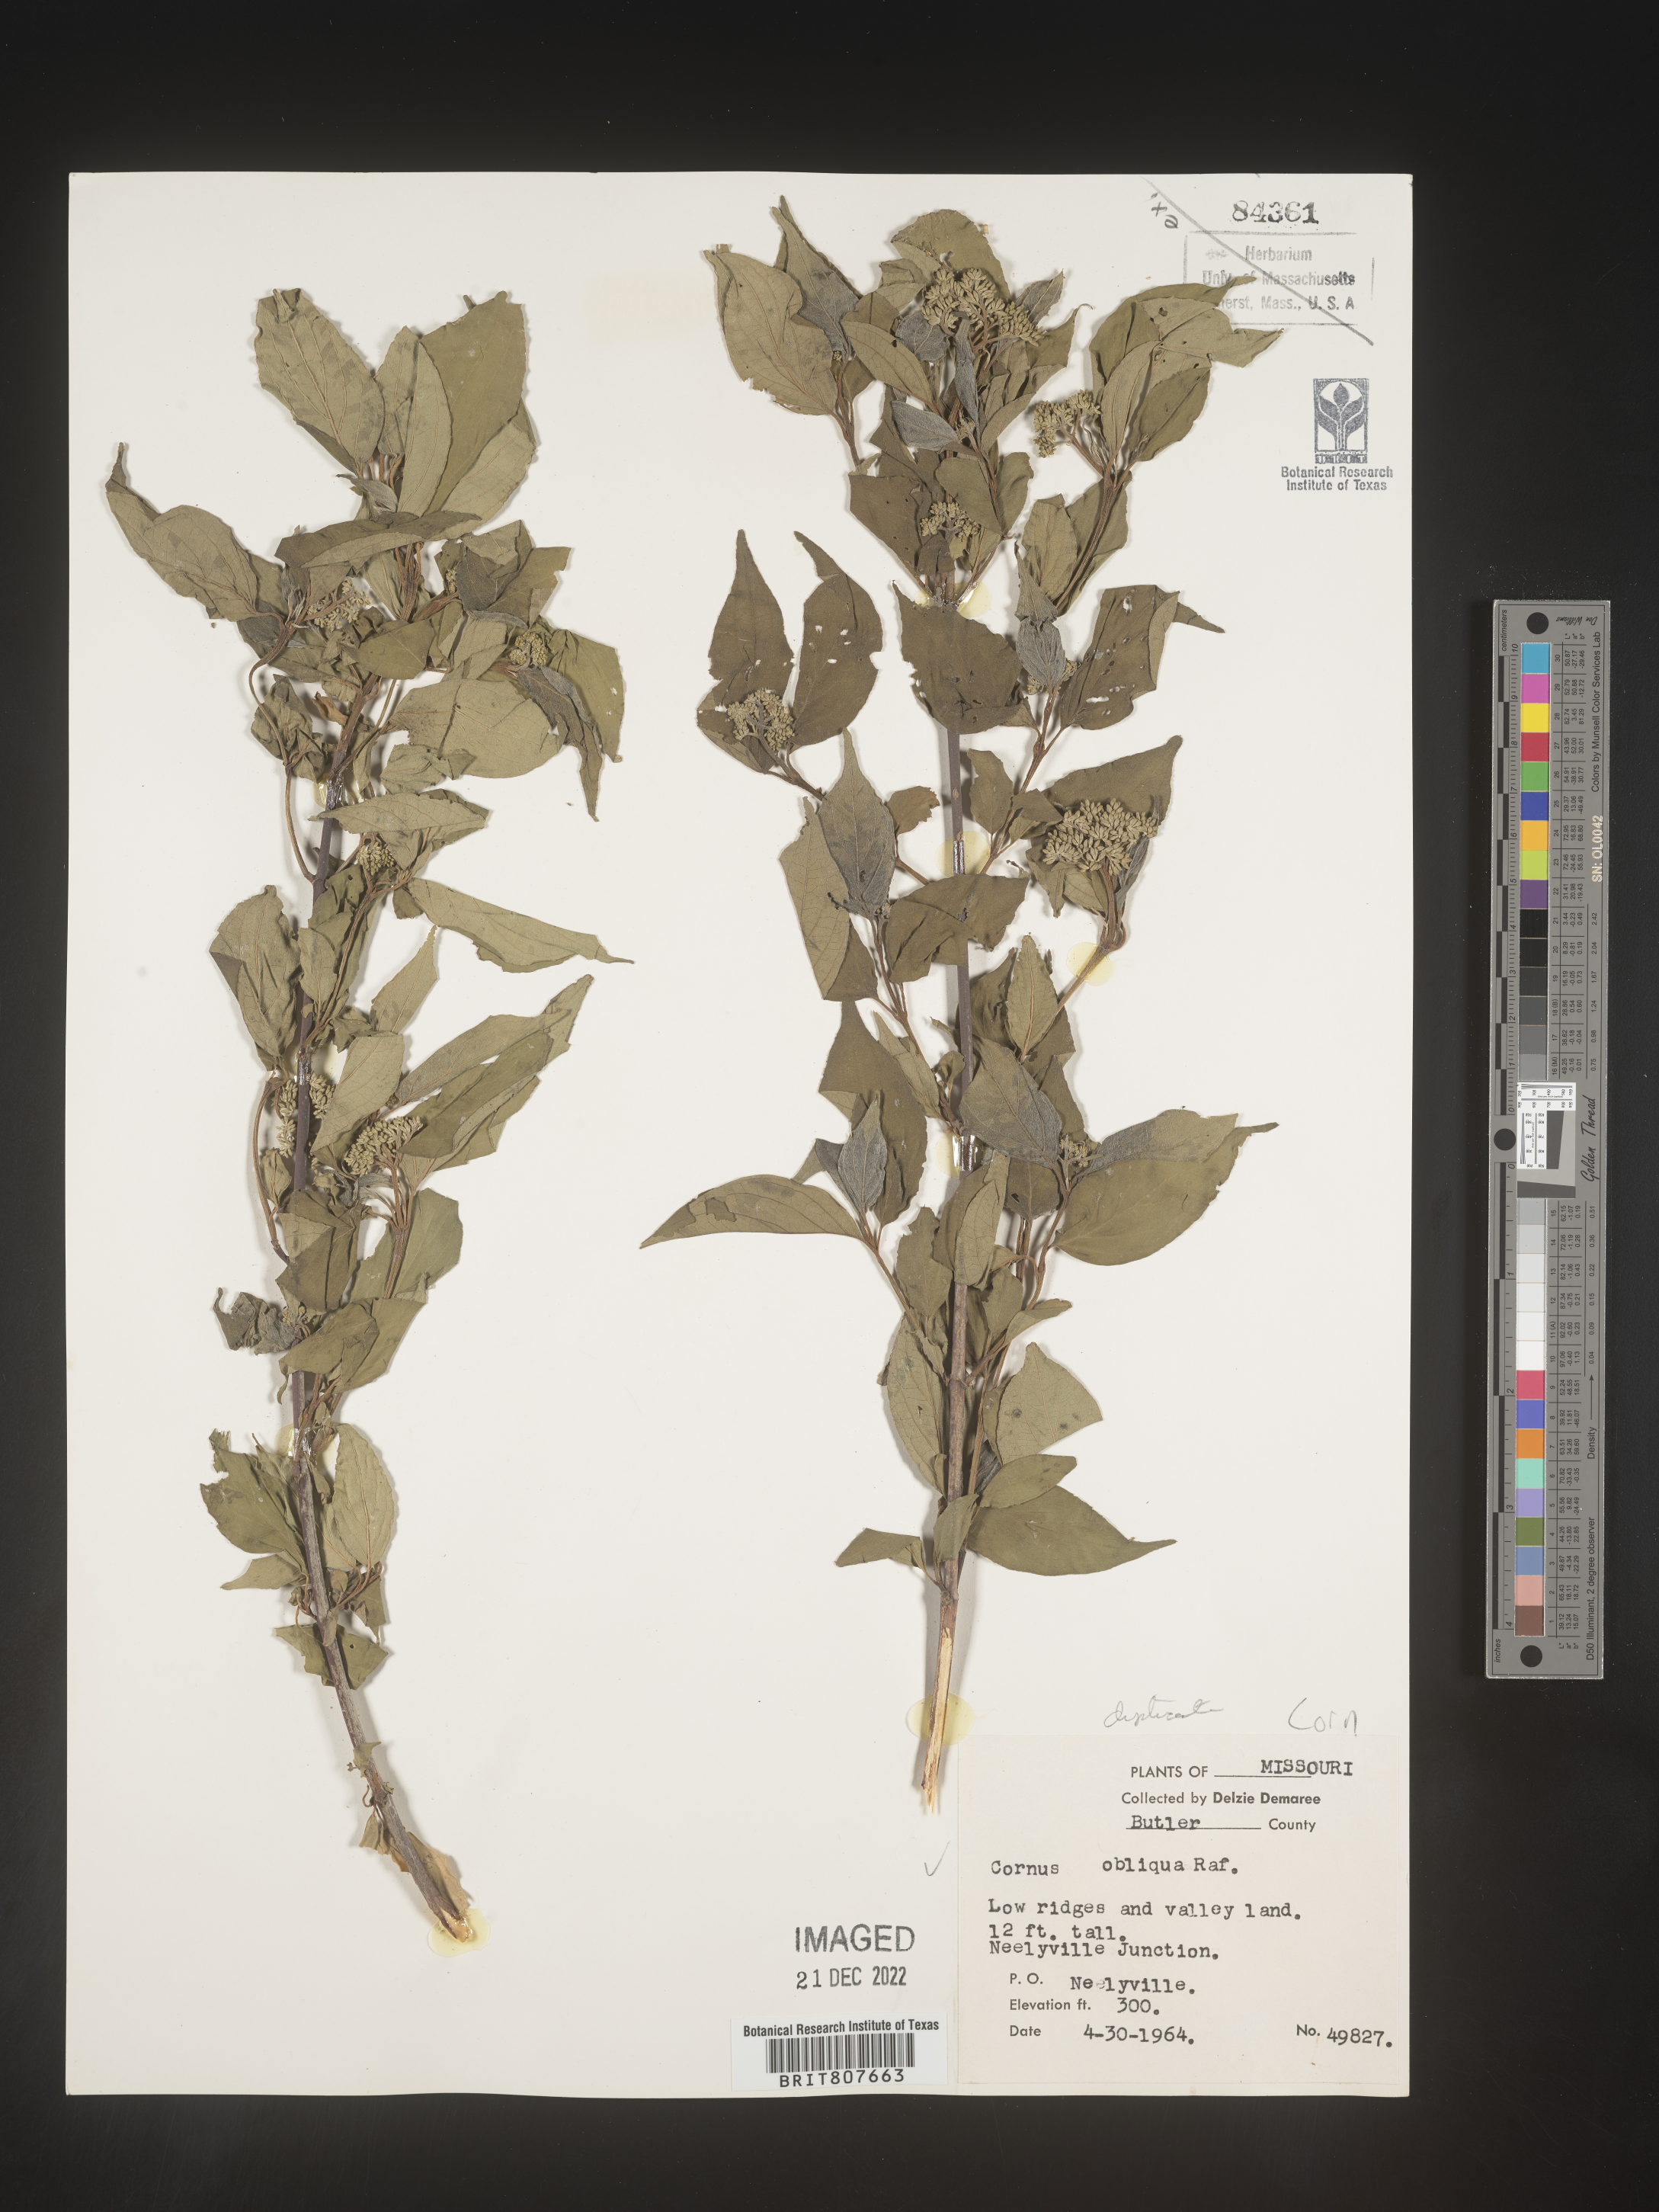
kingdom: Plantae
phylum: Tracheophyta
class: Magnoliopsida
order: Cornales
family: Cornaceae
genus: Cornus
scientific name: Cornus obliqua
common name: Pale dogwood
